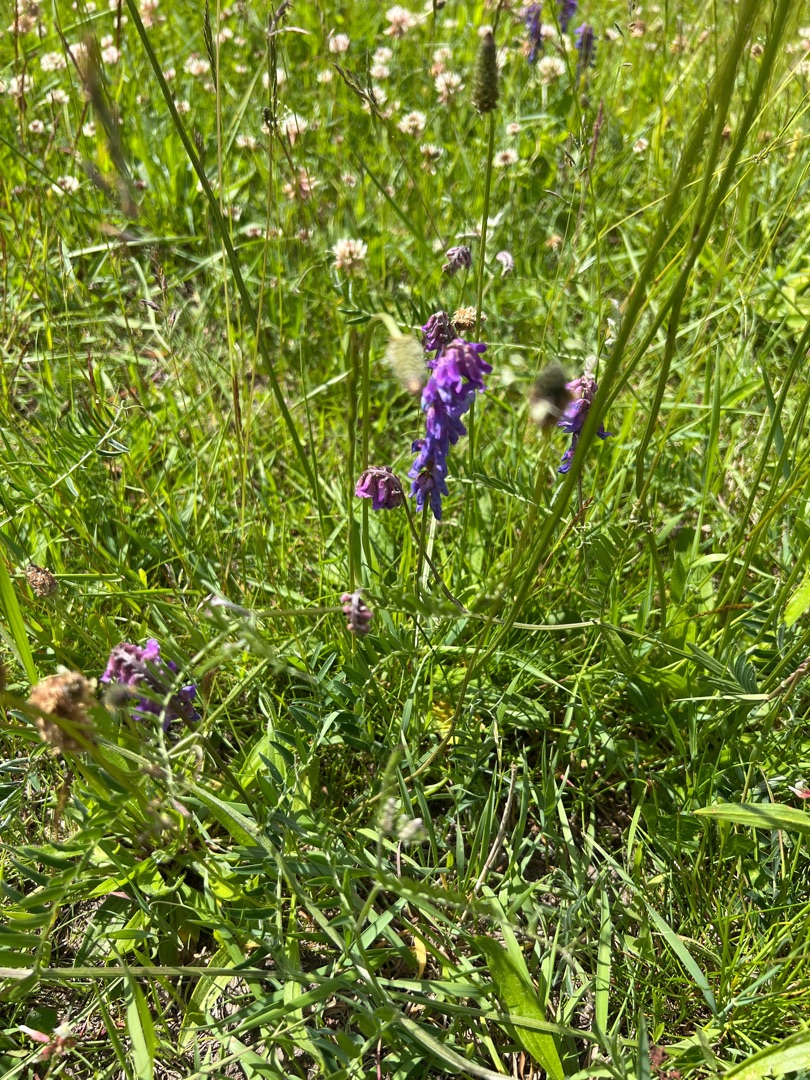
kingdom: Plantae
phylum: Tracheophyta
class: Magnoliopsida
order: Fabales
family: Fabaceae
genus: Vicia
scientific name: Vicia cracca
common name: Muse-vikke
